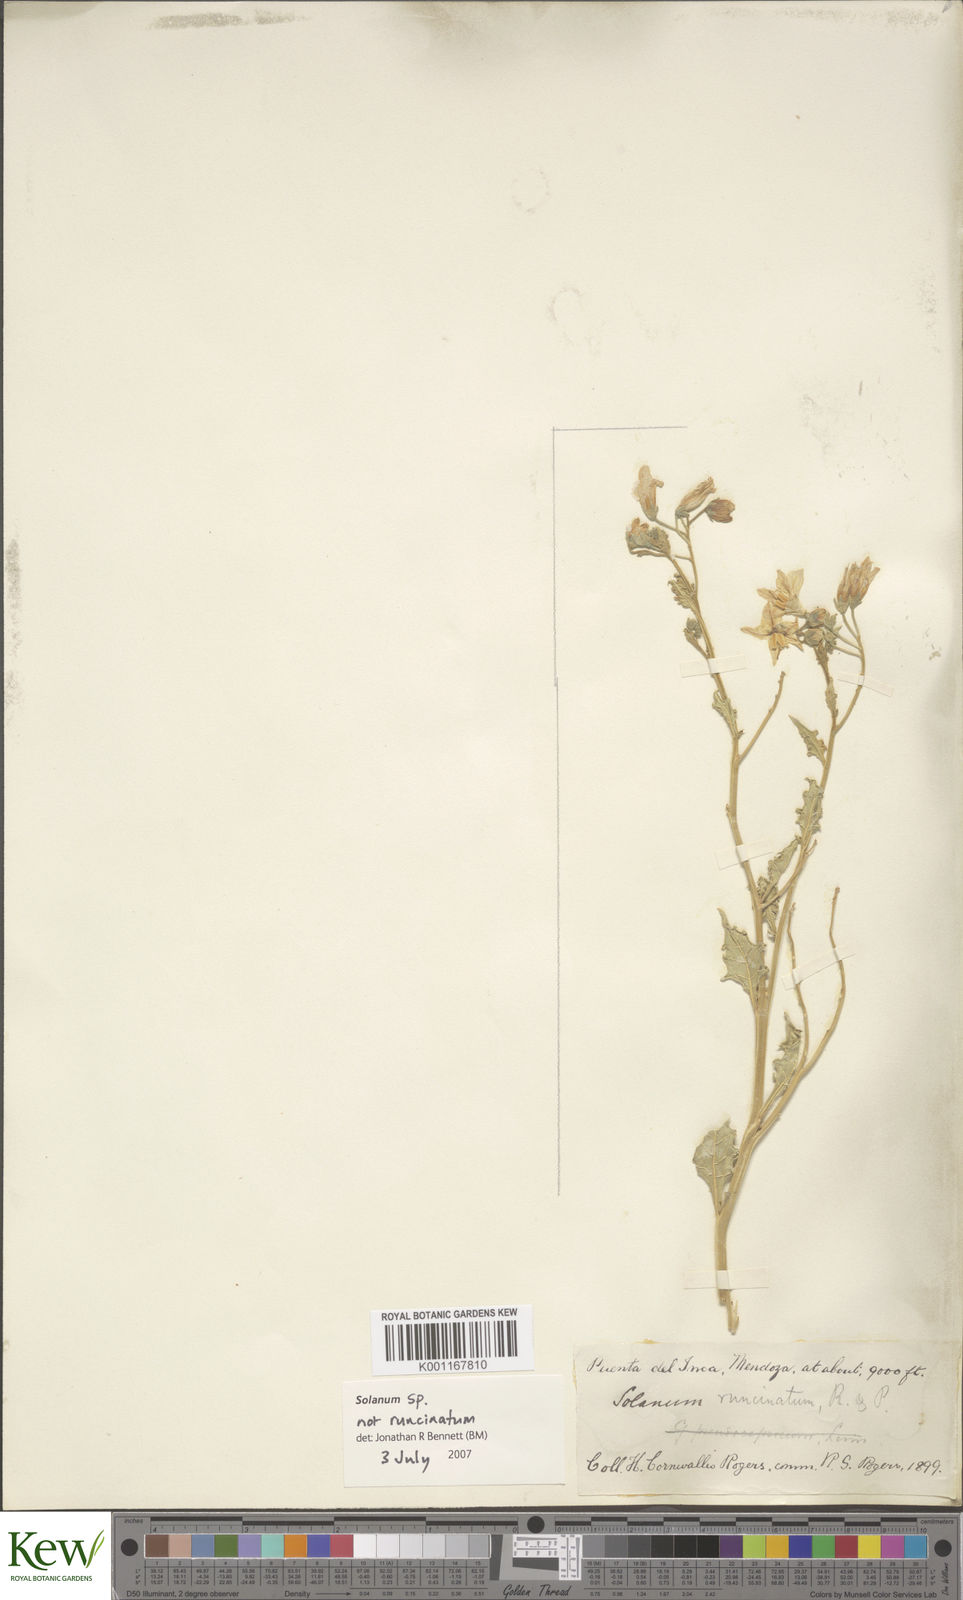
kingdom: Plantae
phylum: Tracheophyta
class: Magnoliopsida
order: Solanales
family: Solanaceae
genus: Solanum
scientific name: Solanum echegarayi
